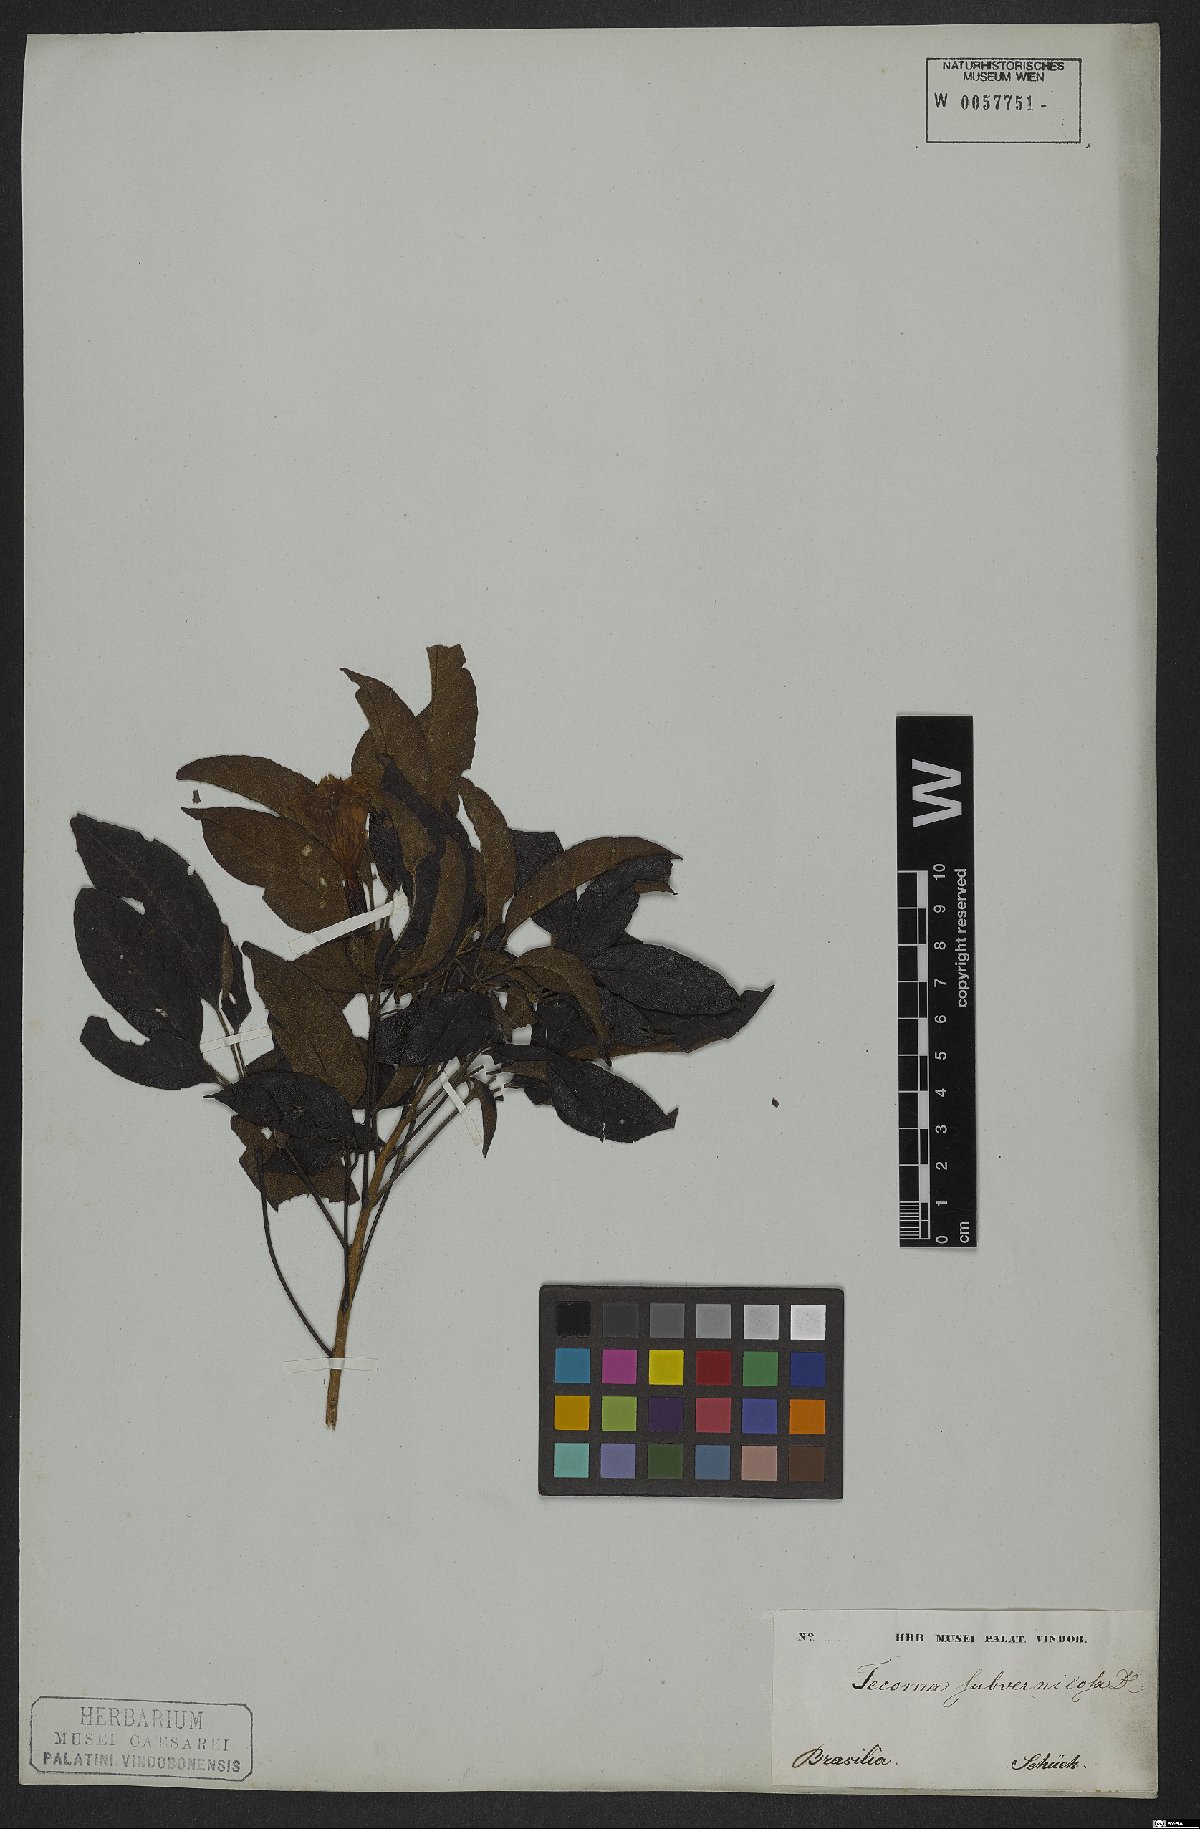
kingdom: Plantae
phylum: Tracheophyta
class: Magnoliopsida
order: Lamiales
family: Bignoniaceae
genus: Sparattosperma
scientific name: Sparattosperma leucanthum
